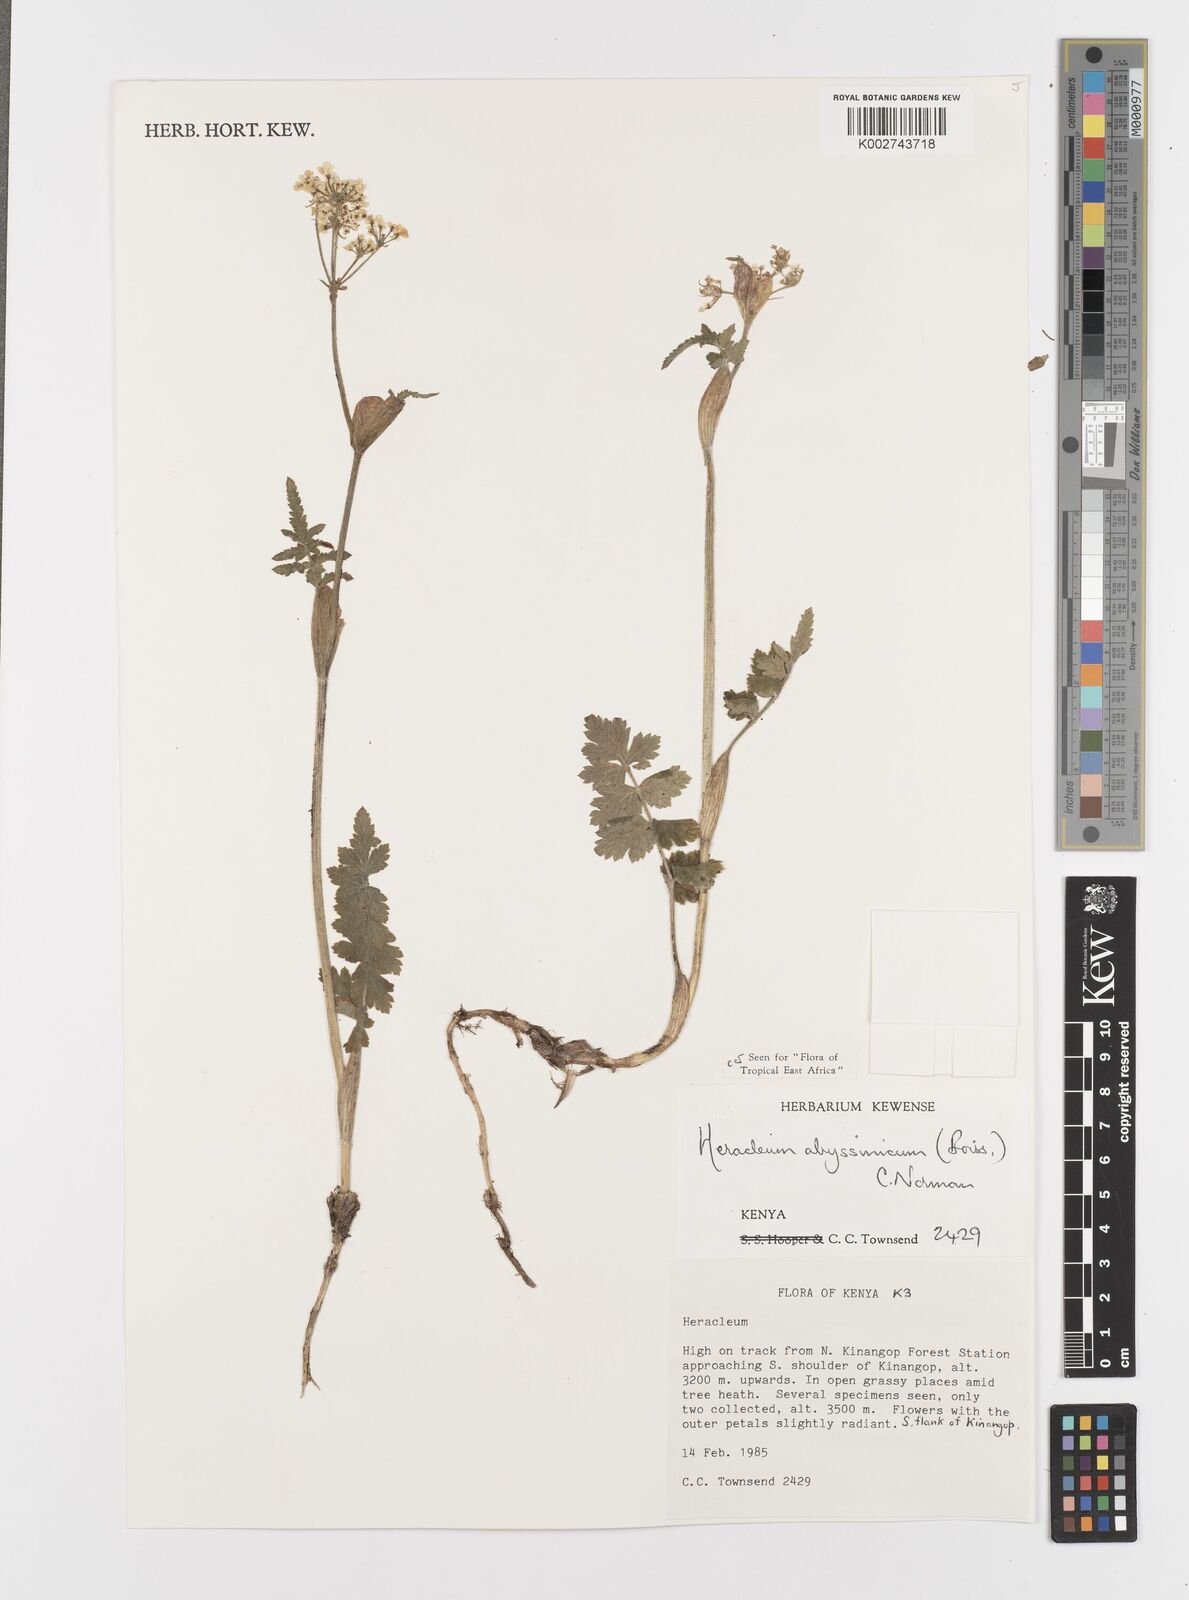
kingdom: Plantae
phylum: Tracheophyta
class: Magnoliopsida
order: Apiales
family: Apiaceae
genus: Heracleum
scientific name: Heracleum abyssinicum
